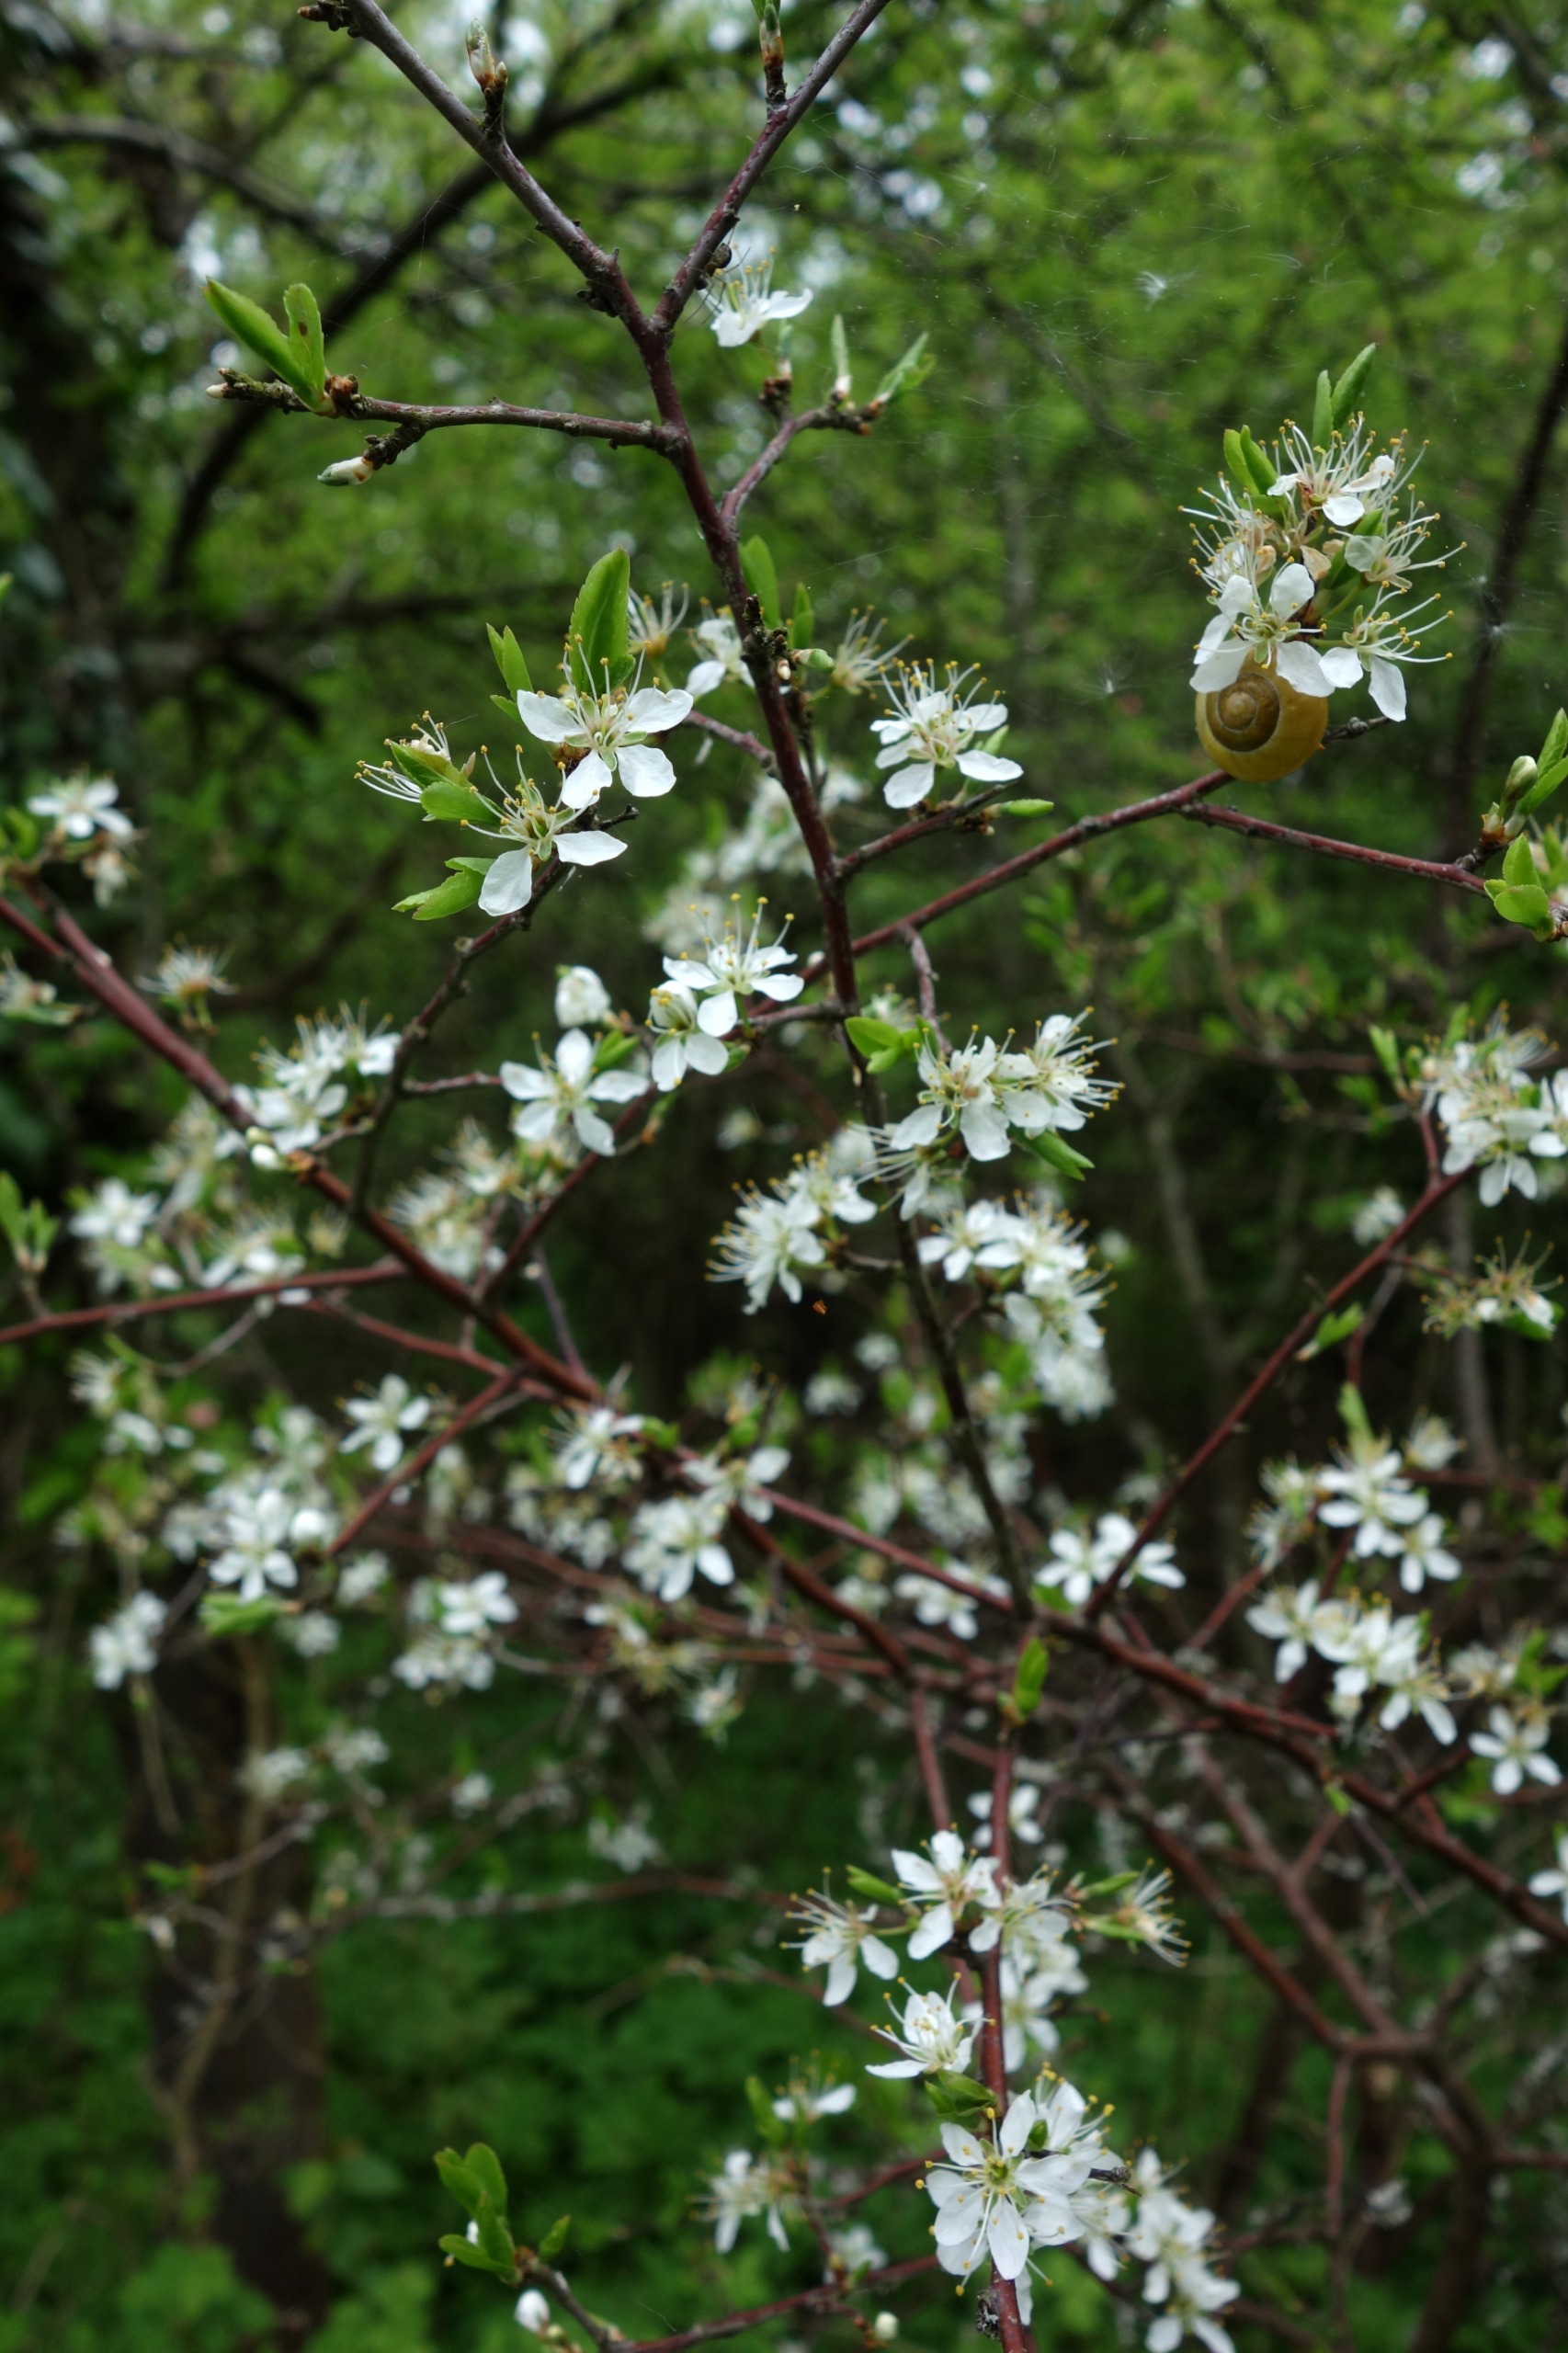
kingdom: Plantae
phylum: Tracheophyta
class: Magnoliopsida
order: Rosales
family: Rosaceae
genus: Prunus
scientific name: Prunus spinosa
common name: Slåen
